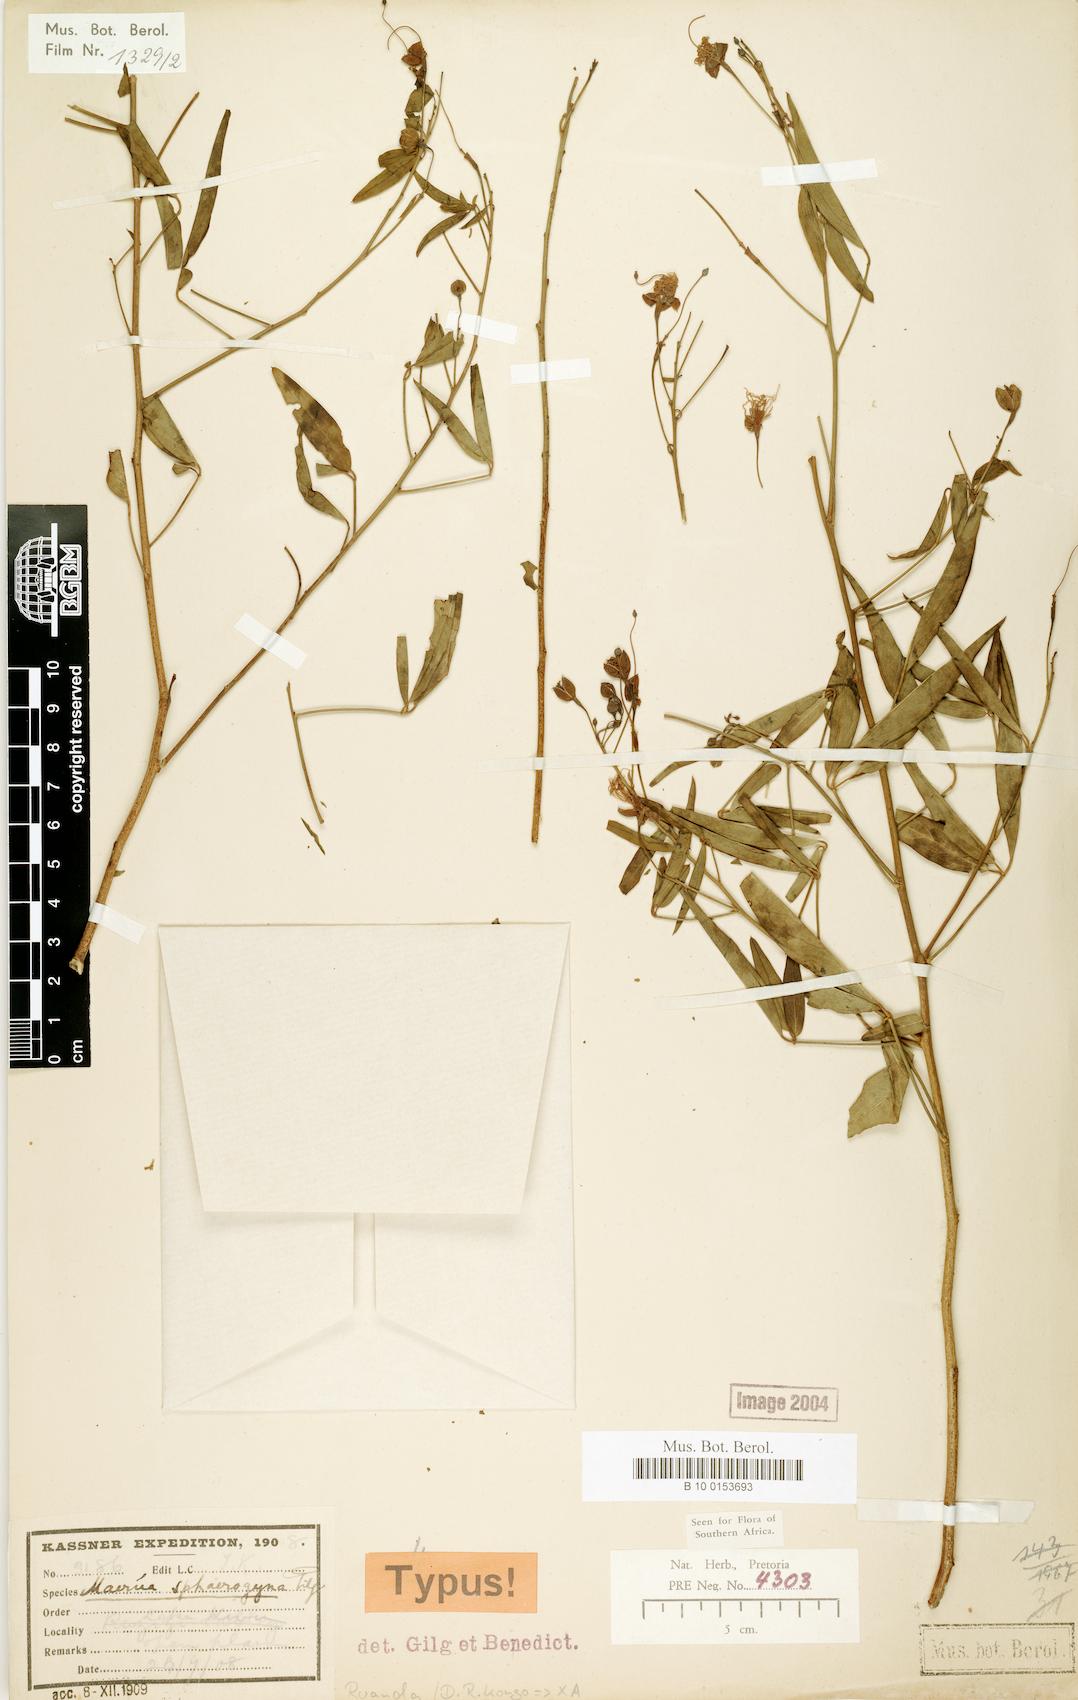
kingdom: Plantae
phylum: Tracheophyta
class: Magnoliopsida
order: Brassicales
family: Capparaceae
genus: Maerua
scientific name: Maerua aethiopica
